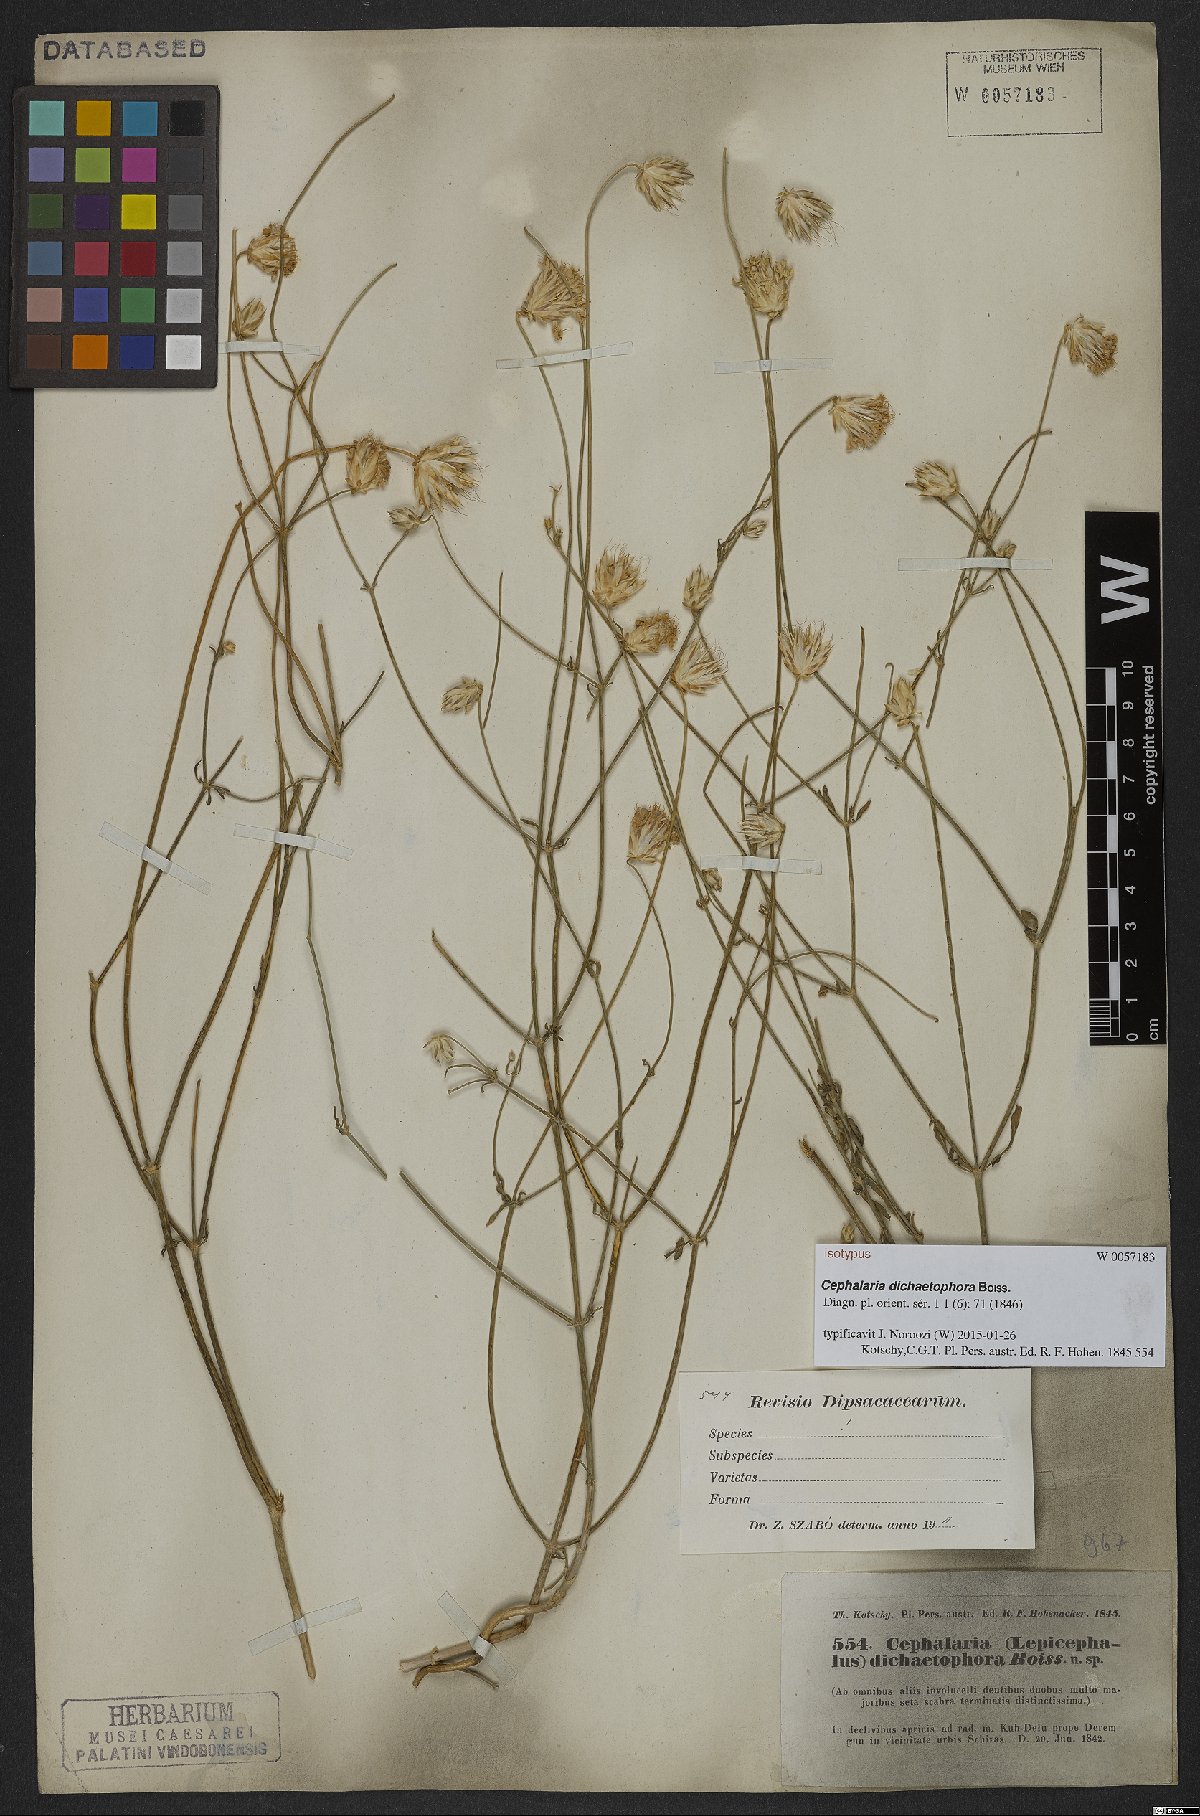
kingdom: Plantae
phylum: Tracheophyta
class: Magnoliopsida
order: Dipsacales
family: Caprifoliaceae
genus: Cephalaria
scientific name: Cephalaria dichaetophora
